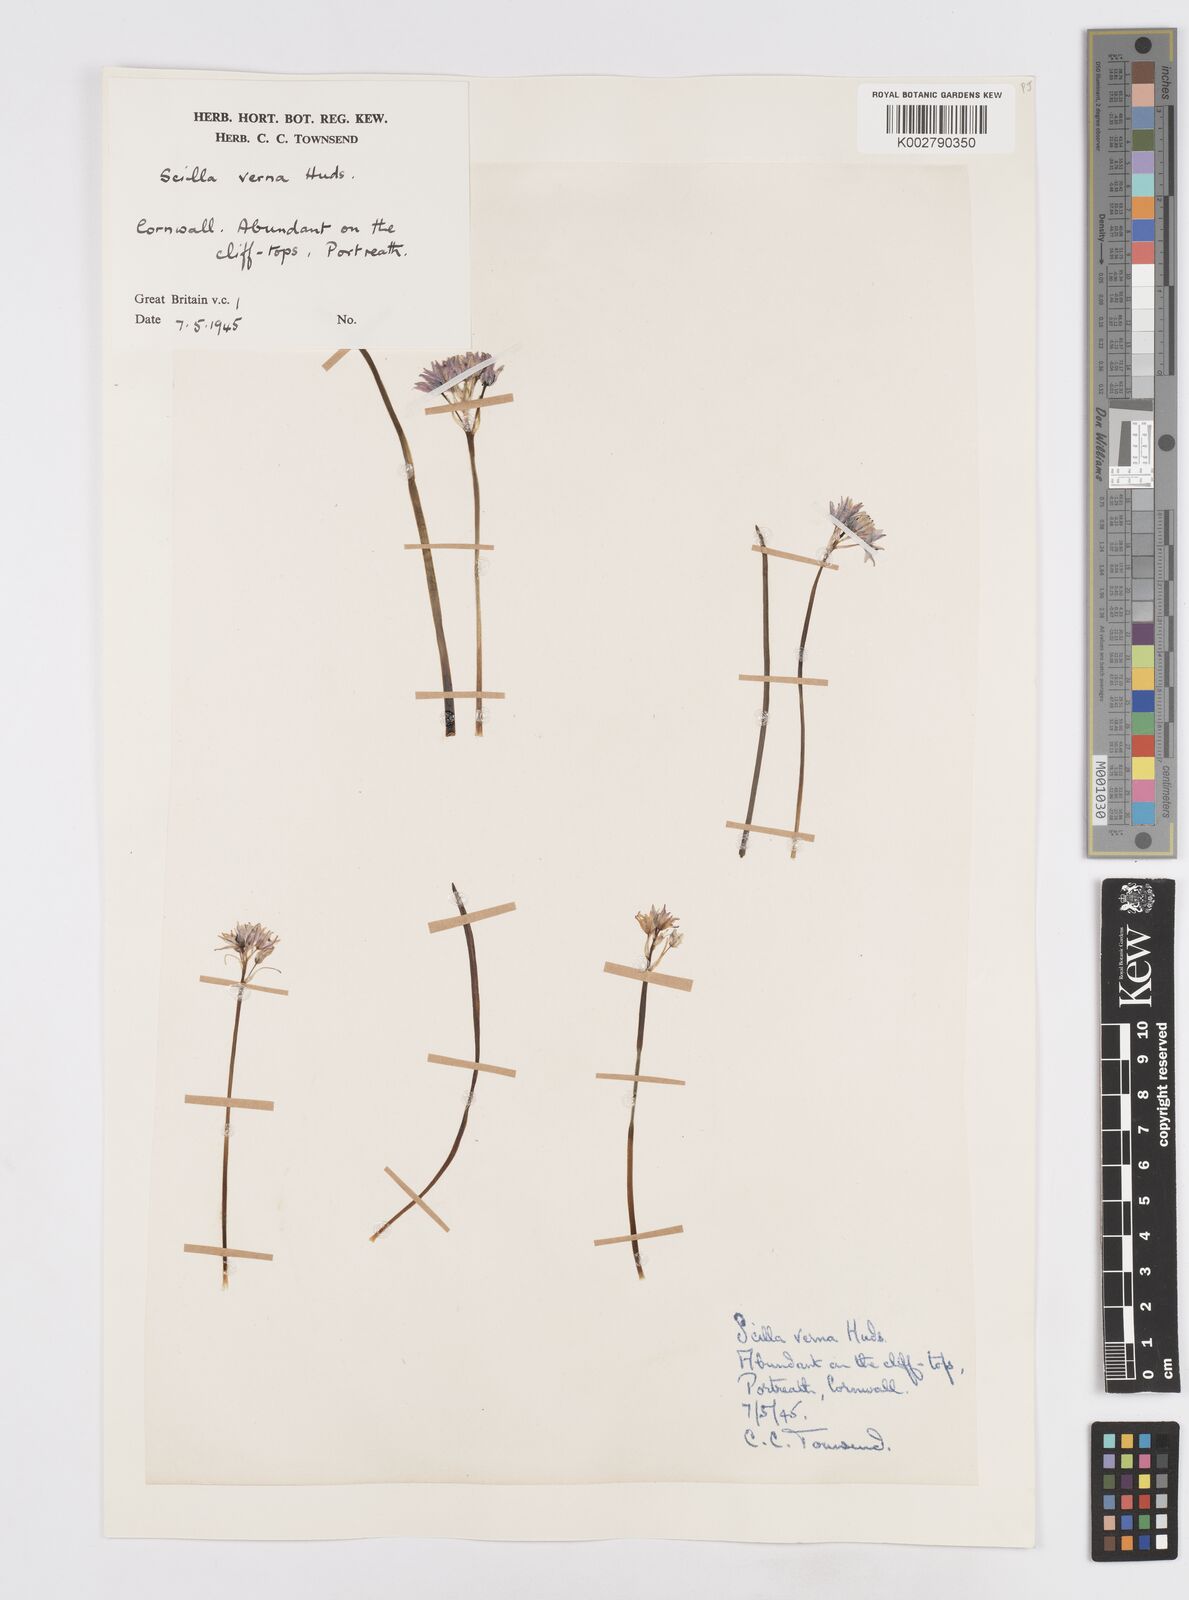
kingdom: Plantae
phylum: Tracheophyta
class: Liliopsida
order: Asparagales
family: Asparagaceae
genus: Scilla
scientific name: Scilla verna
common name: Spring squill
